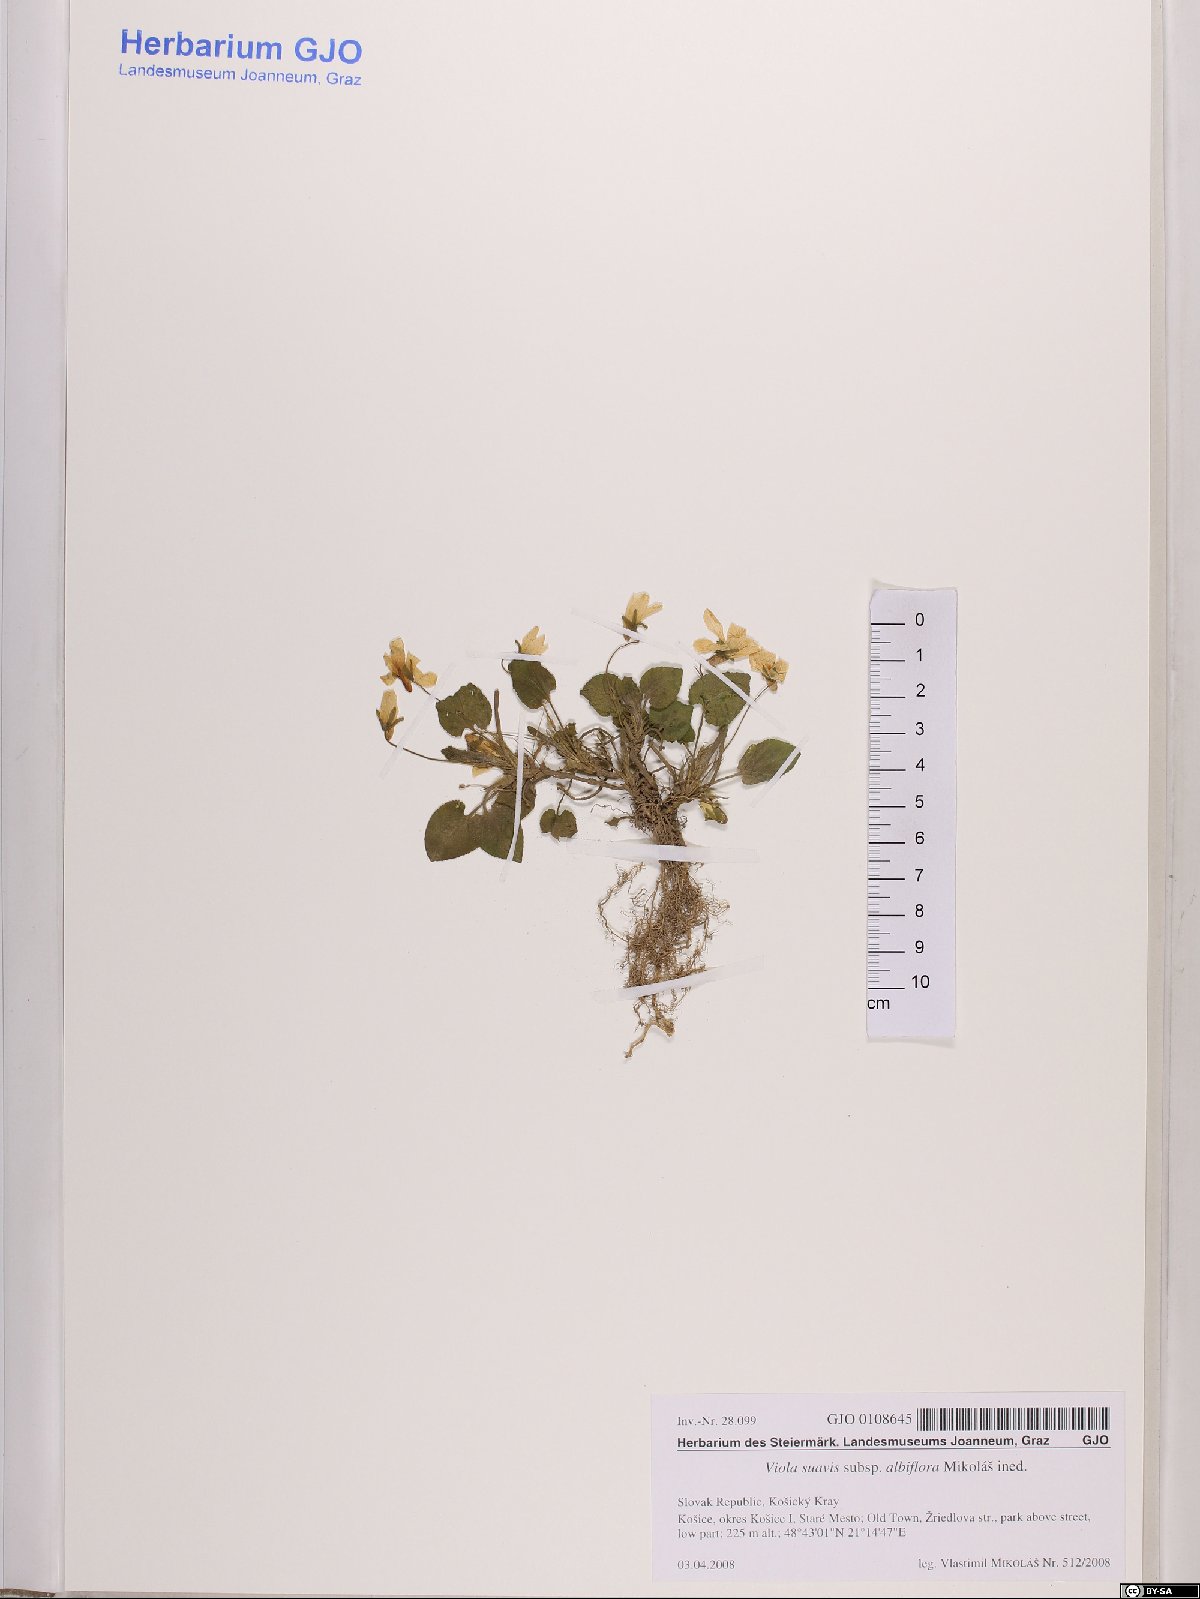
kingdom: Plantae
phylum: Tracheophyta
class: Magnoliopsida
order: Malpighiales
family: Violaceae
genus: Viola
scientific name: Viola suavis
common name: Russian violet
